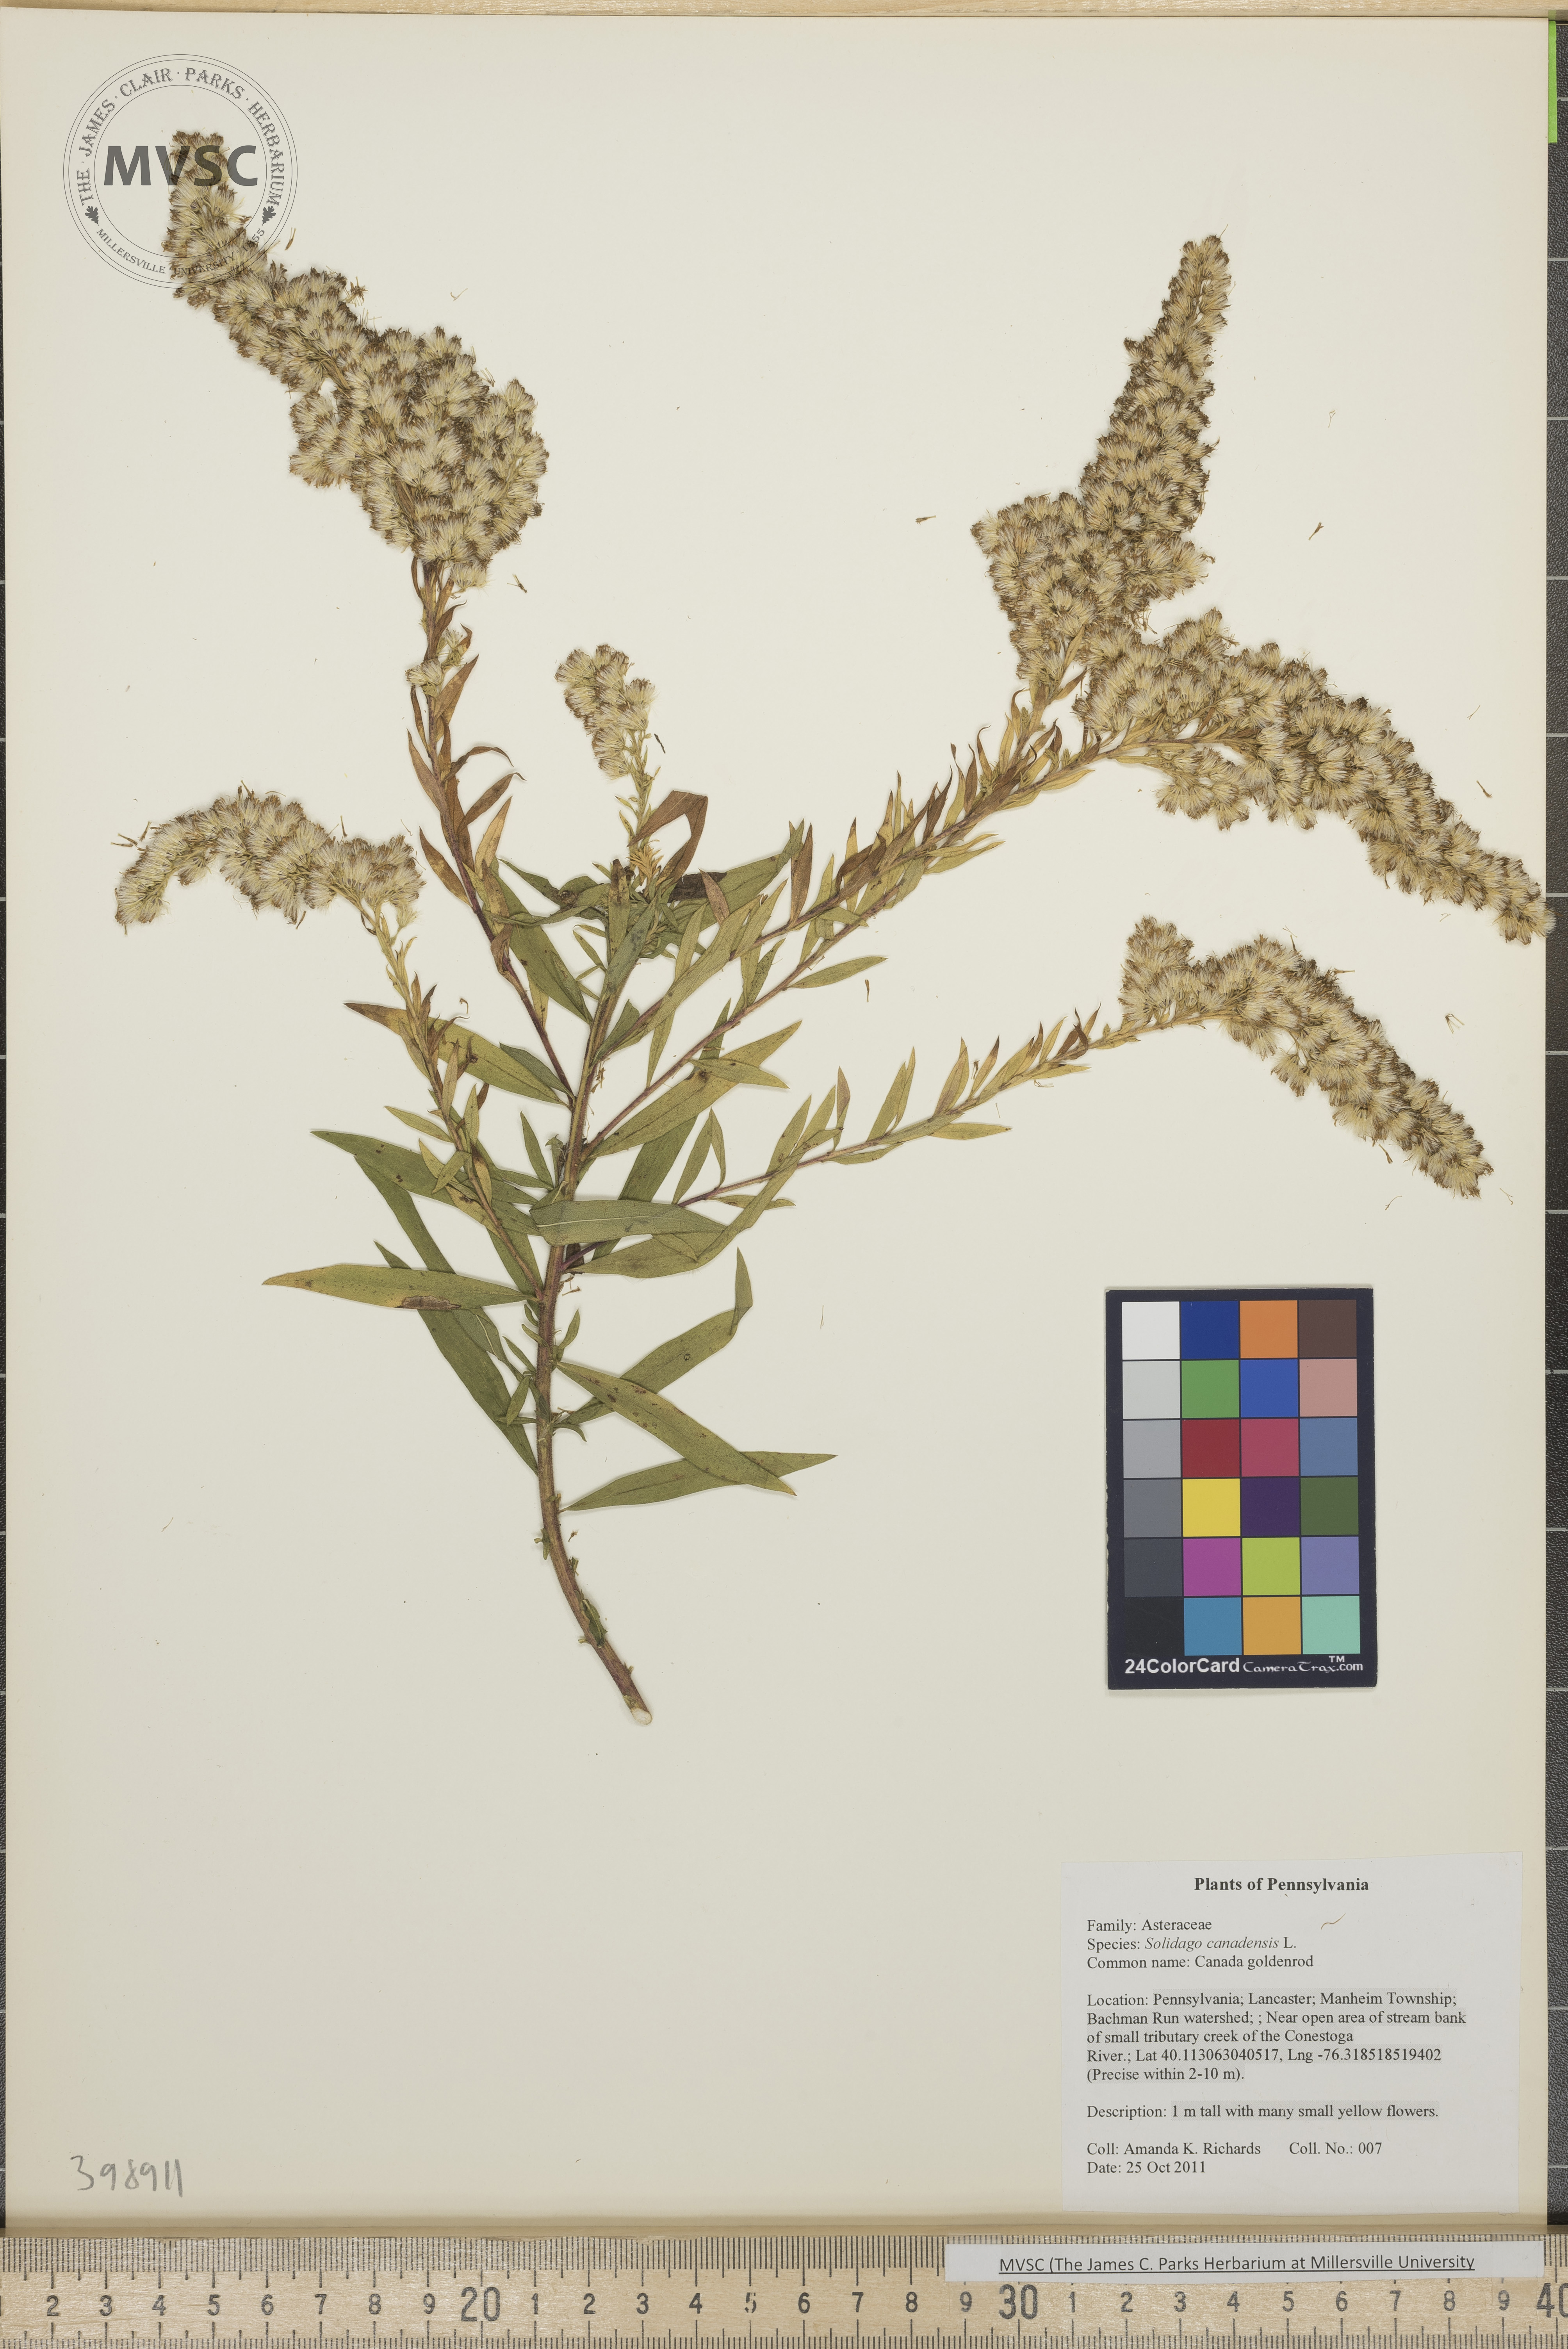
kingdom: Plantae
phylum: Tracheophyta
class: Magnoliopsida
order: Asterales
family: Asteraceae
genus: Solidago
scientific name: Solidago altissima
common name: Late goldenrod
